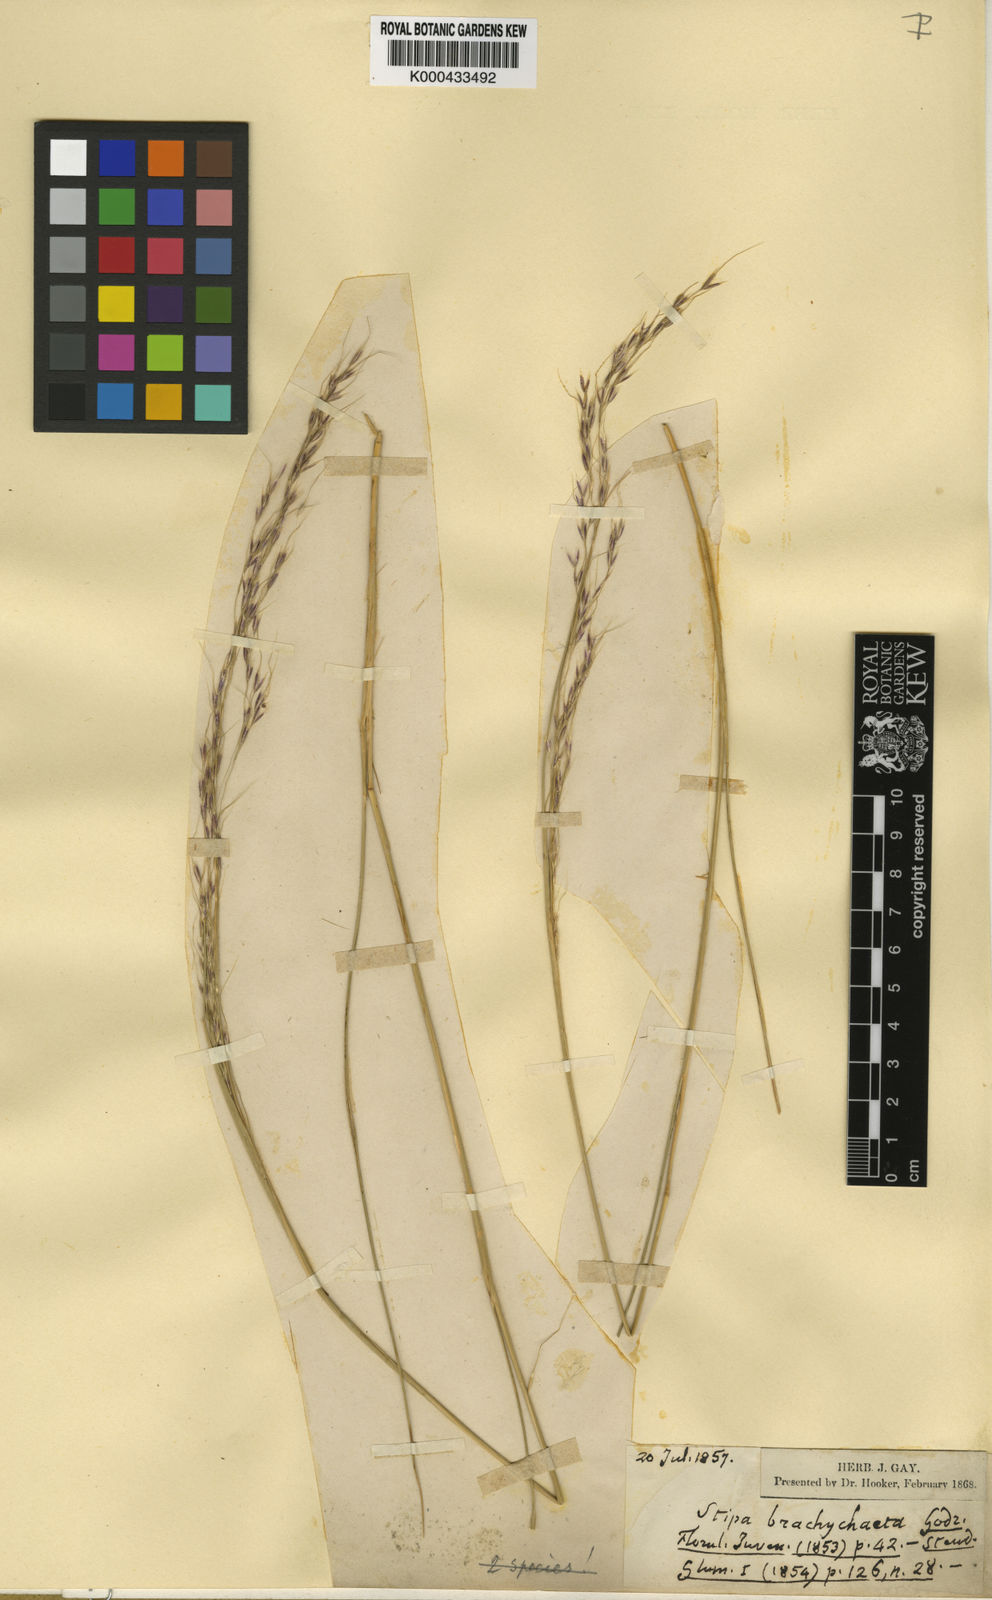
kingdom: Plantae
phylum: Tracheophyta
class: Liliopsida
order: Poales
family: Poaceae
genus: Amelichloa
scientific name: Amelichloa brachychaeta
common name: Shortbristled needlegrass
